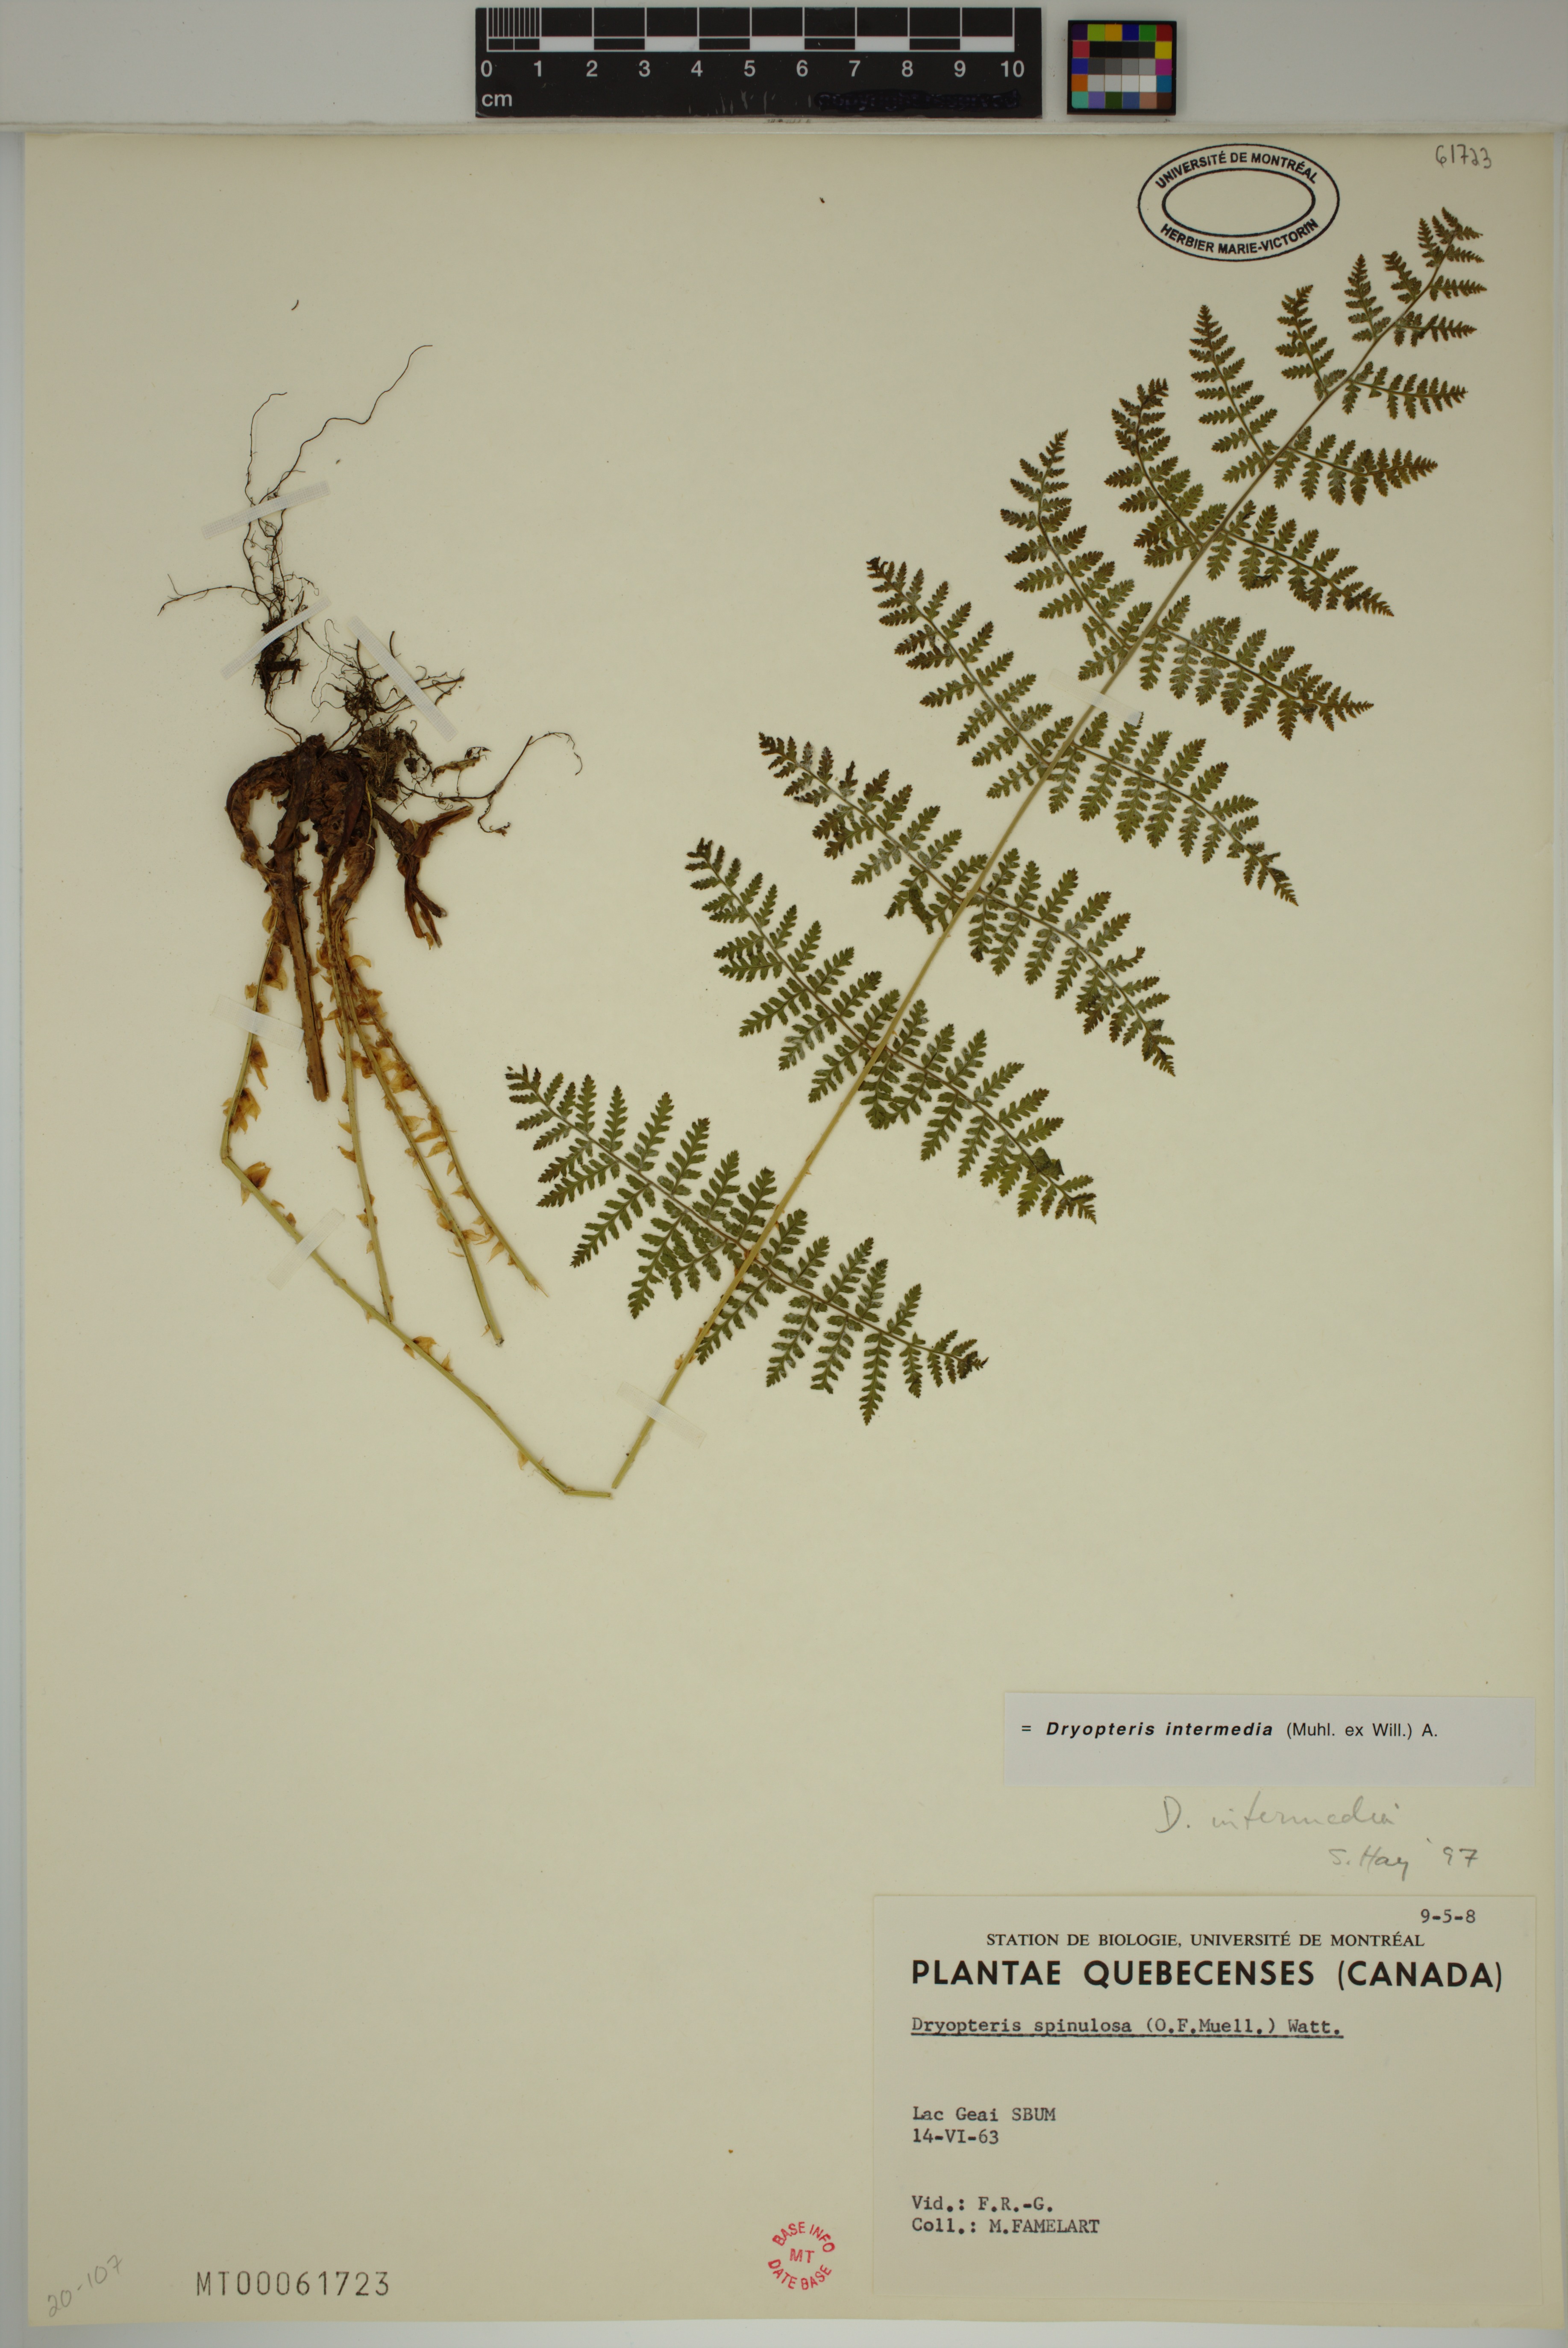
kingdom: Plantae
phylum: Tracheophyta
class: Polypodiopsida
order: Polypodiales
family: Dryopteridaceae
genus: Dryopteris
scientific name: Dryopteris intermedia
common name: Evergreen wood fern
